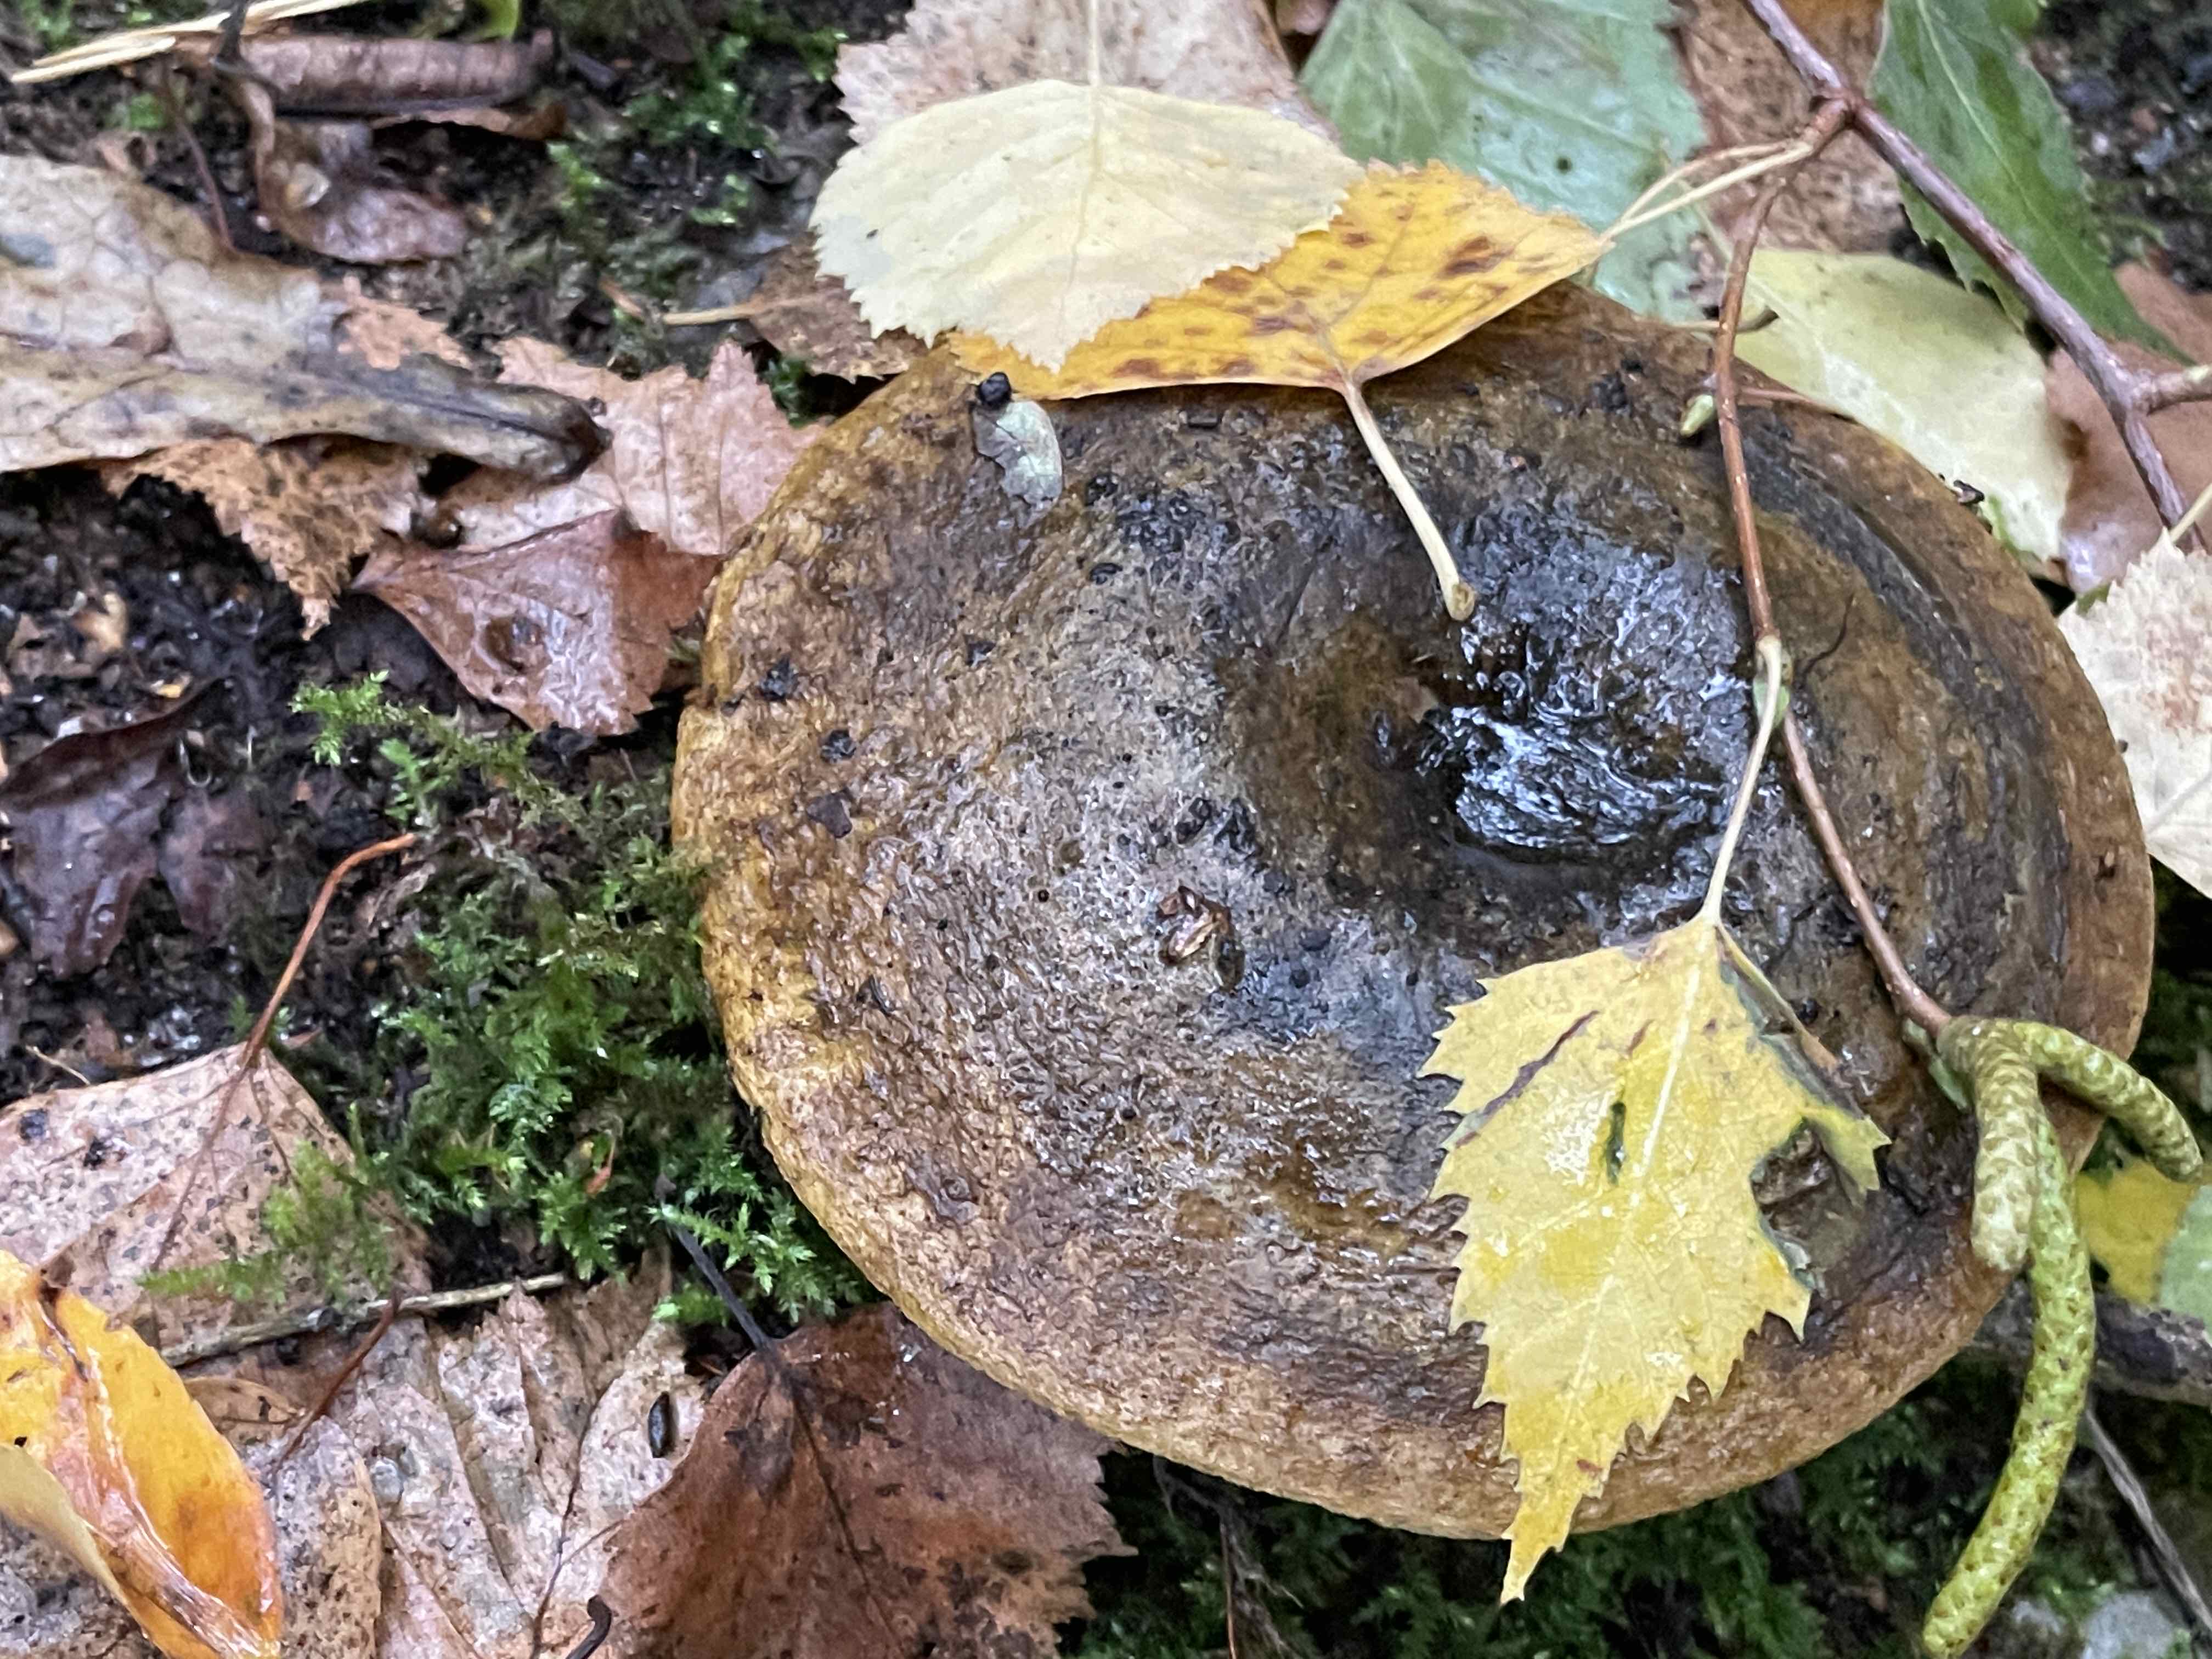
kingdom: Fungi
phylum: Basidiomycota
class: Agaricomycetes
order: Russulales
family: Russulaceae
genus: Lactarius
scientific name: Lactarius necator
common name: manddraber-mælkehat
